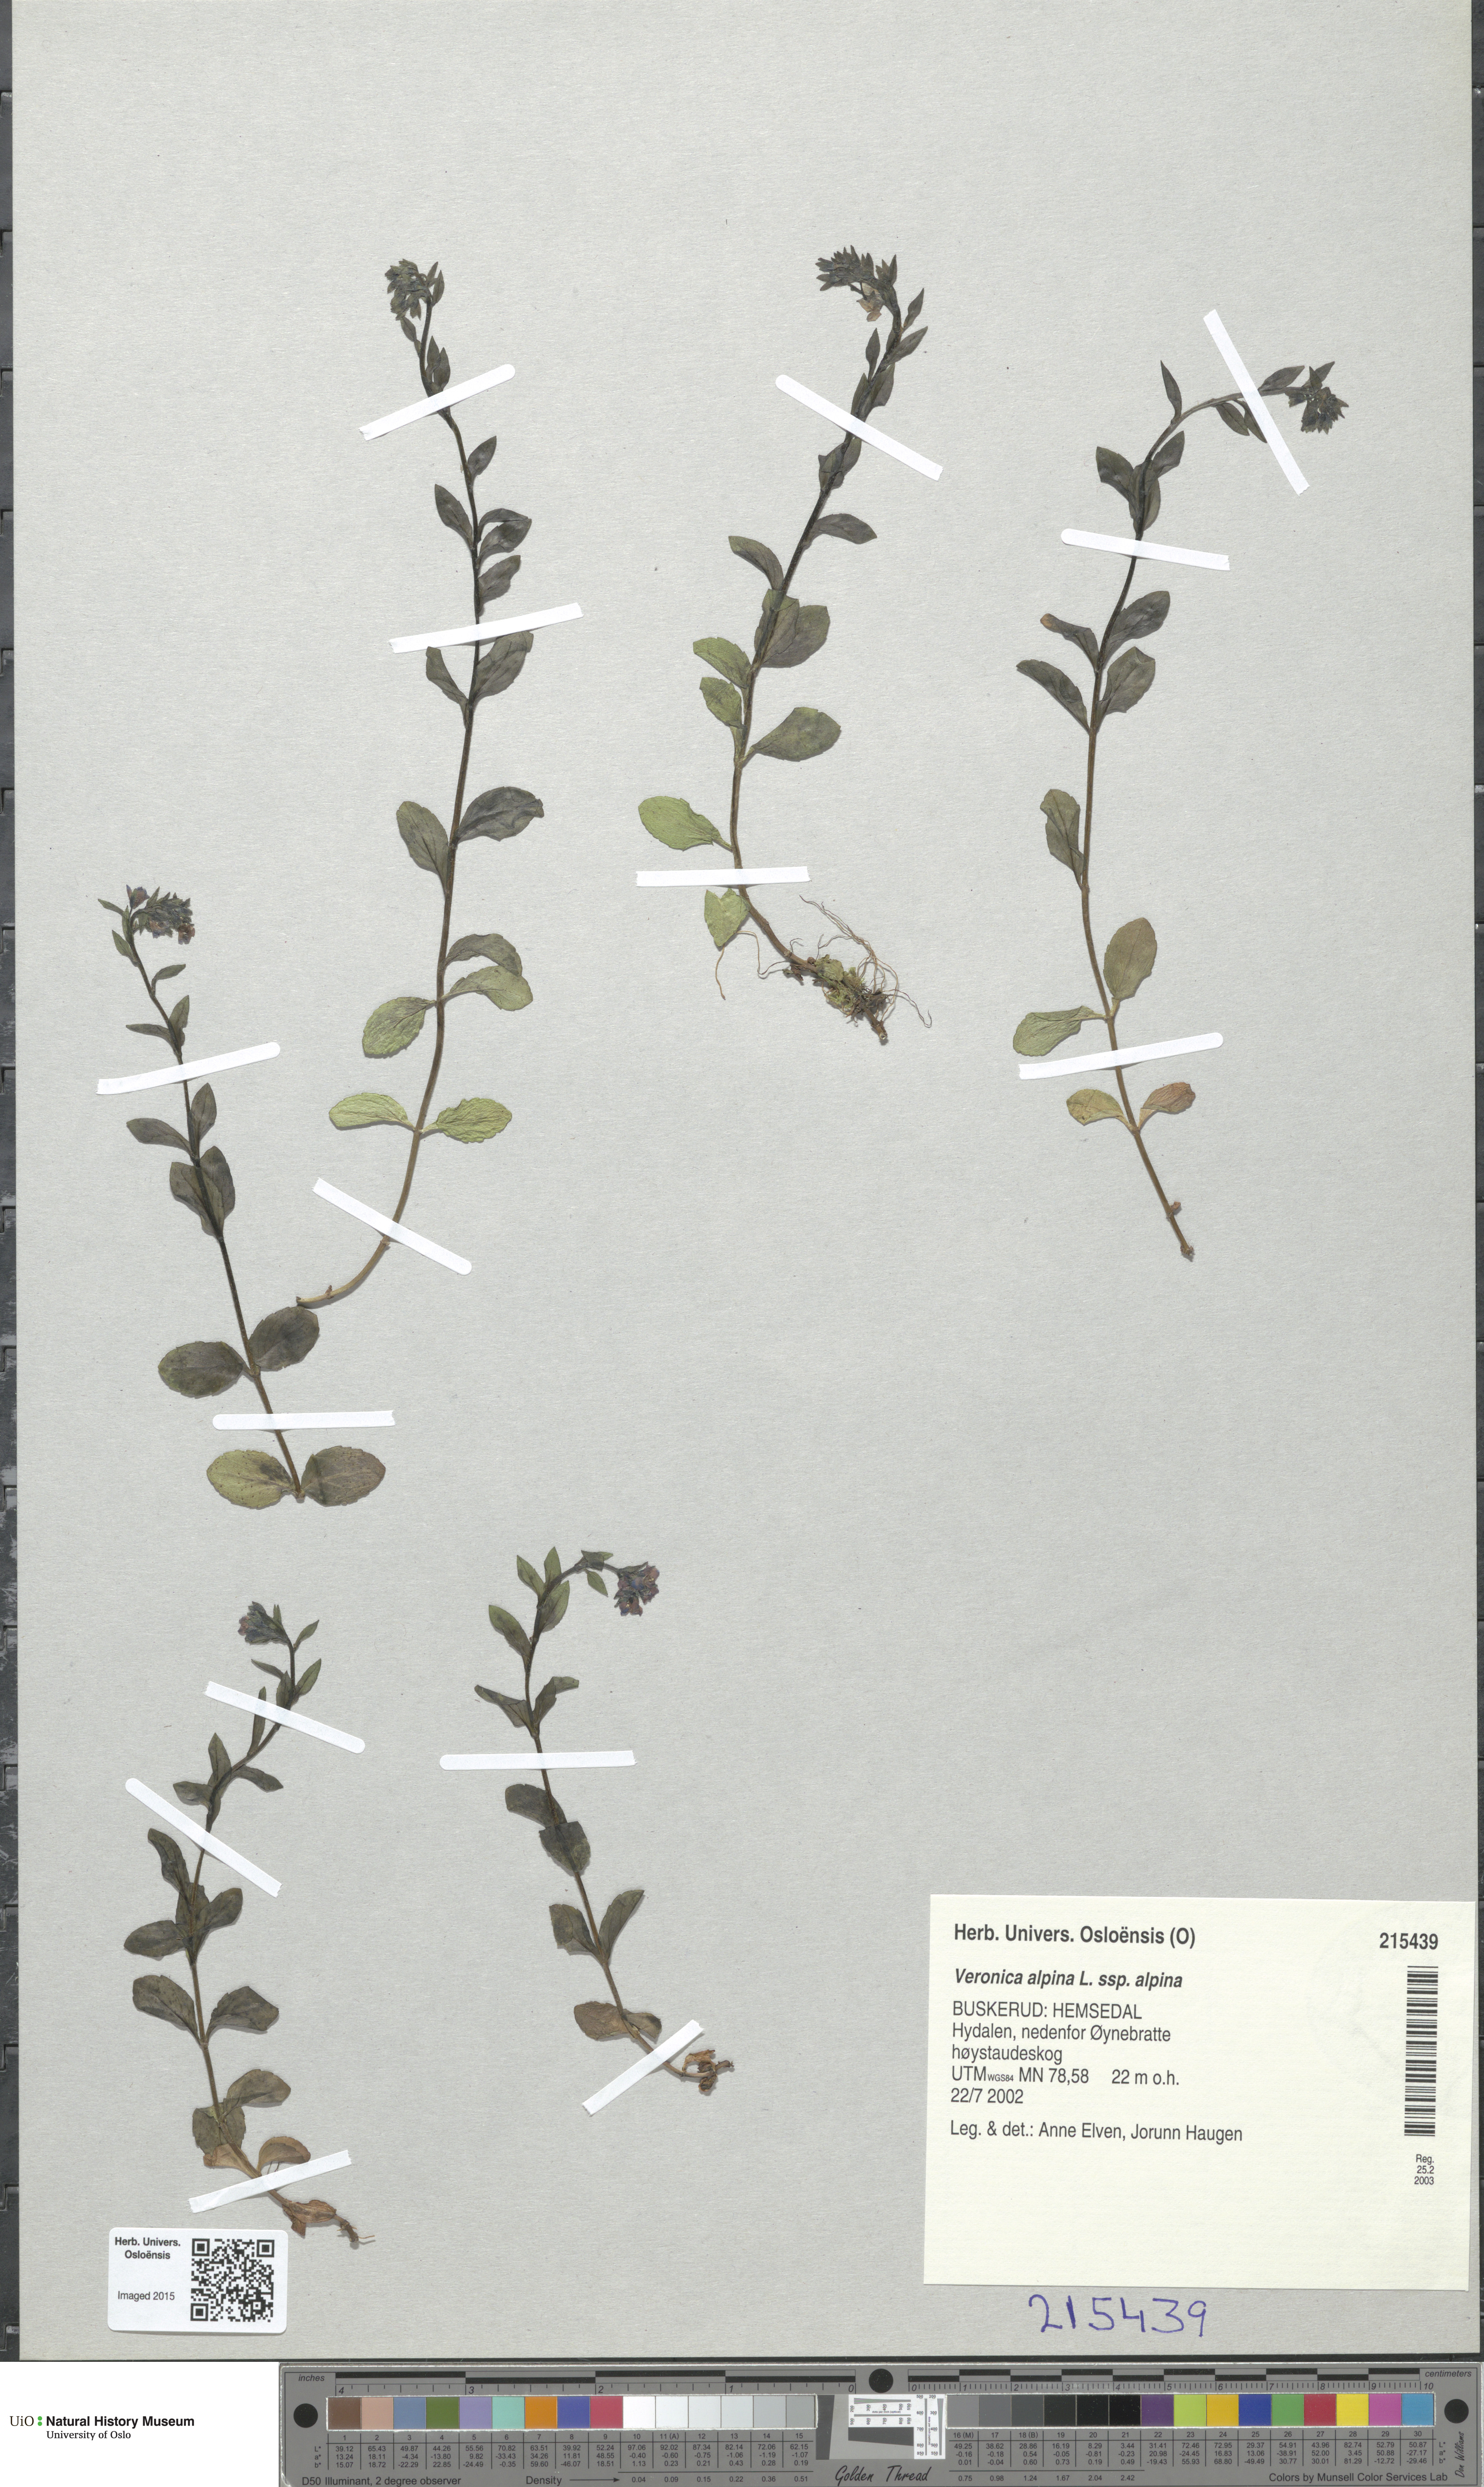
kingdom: Plantae
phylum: Tracheophyta
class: Magnoliopsida
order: Lamiales
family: Plantaginaceae
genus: Veronica
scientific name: Veronica alpina
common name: Alpine speedwell
